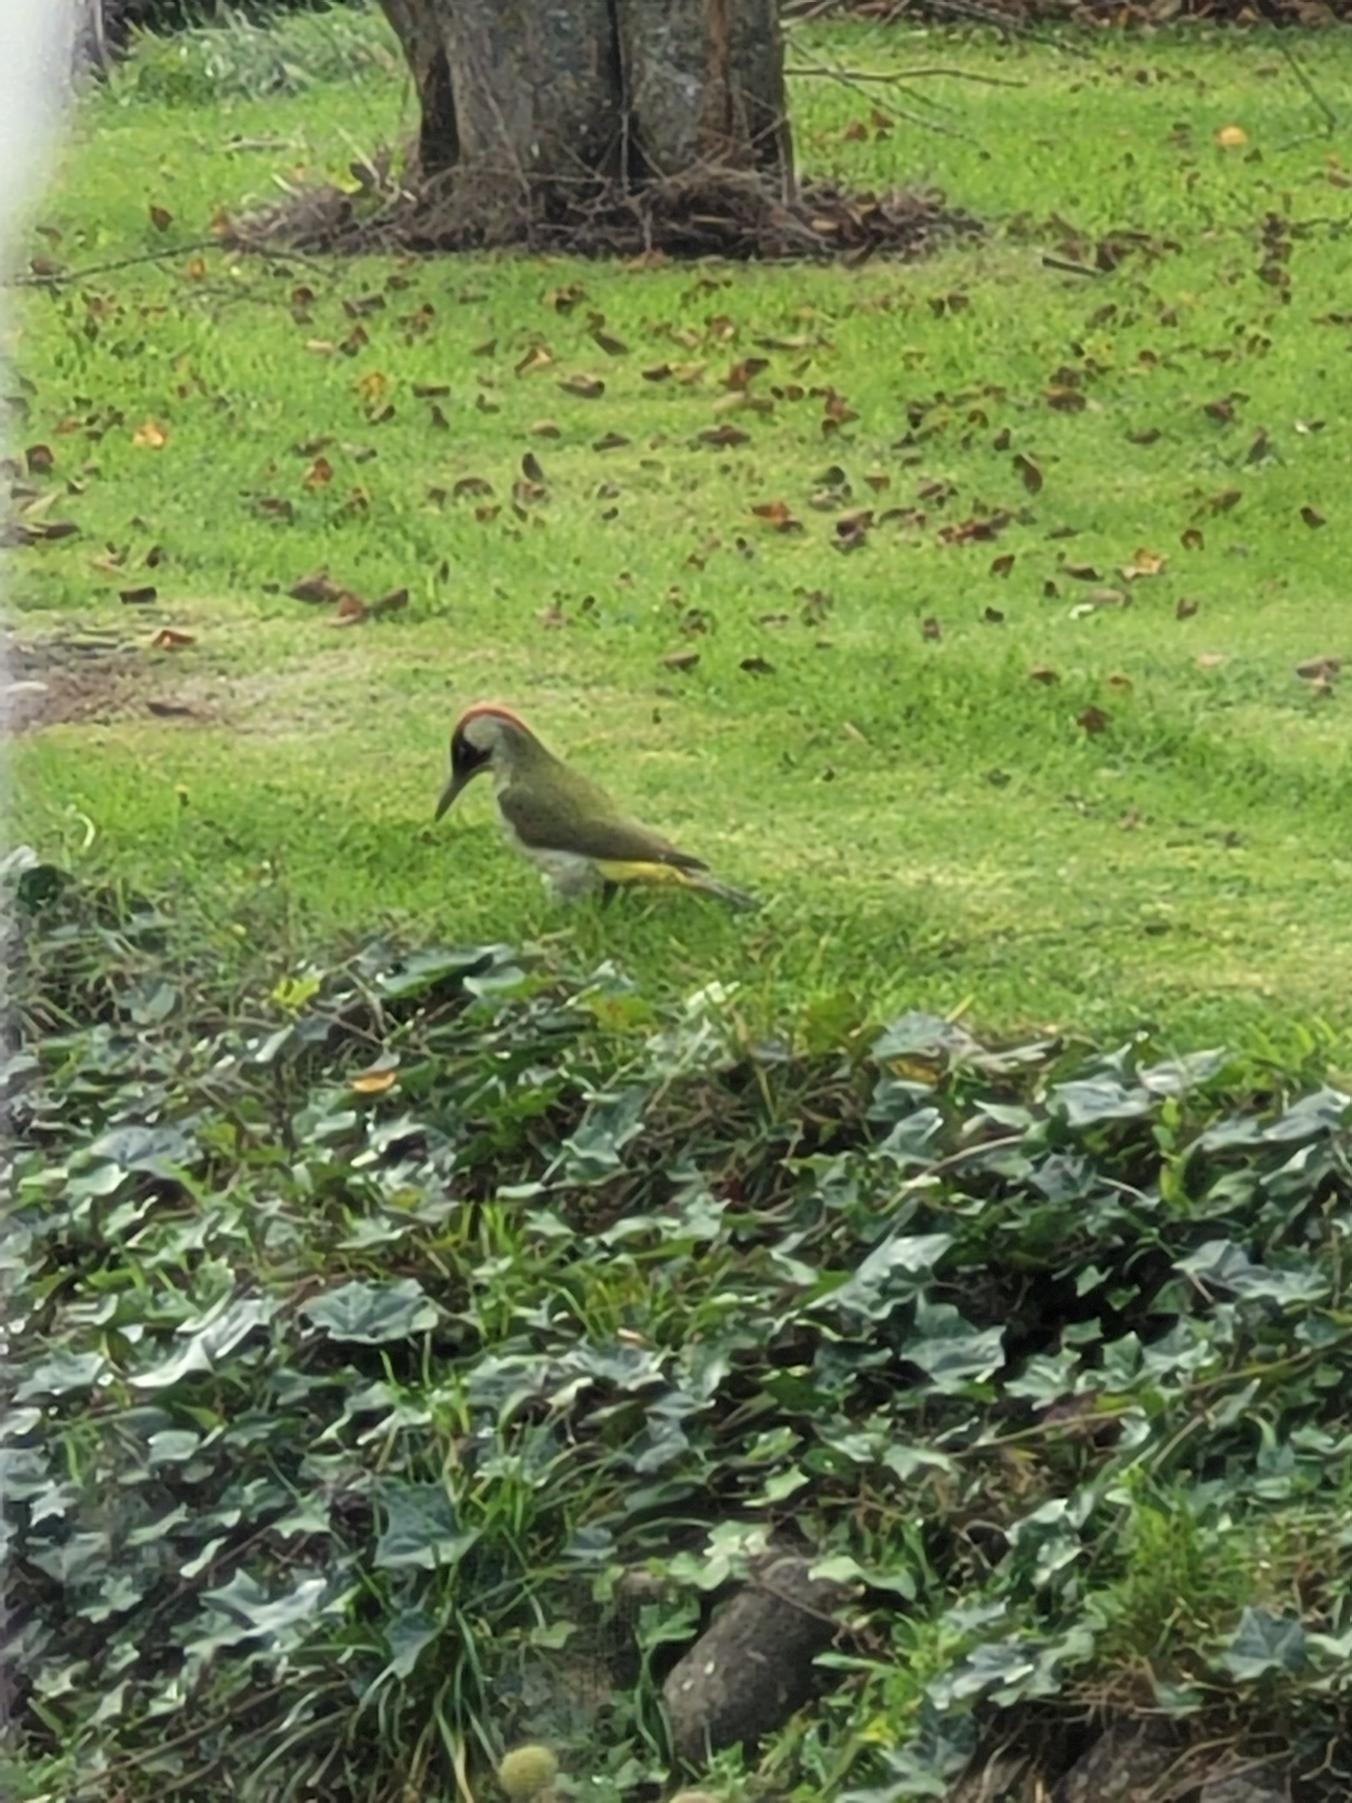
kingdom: Animalia
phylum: Chordata
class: Aves
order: Piciformes
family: Picidae
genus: Picus
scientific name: Picus viridis
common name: Grønspætte
